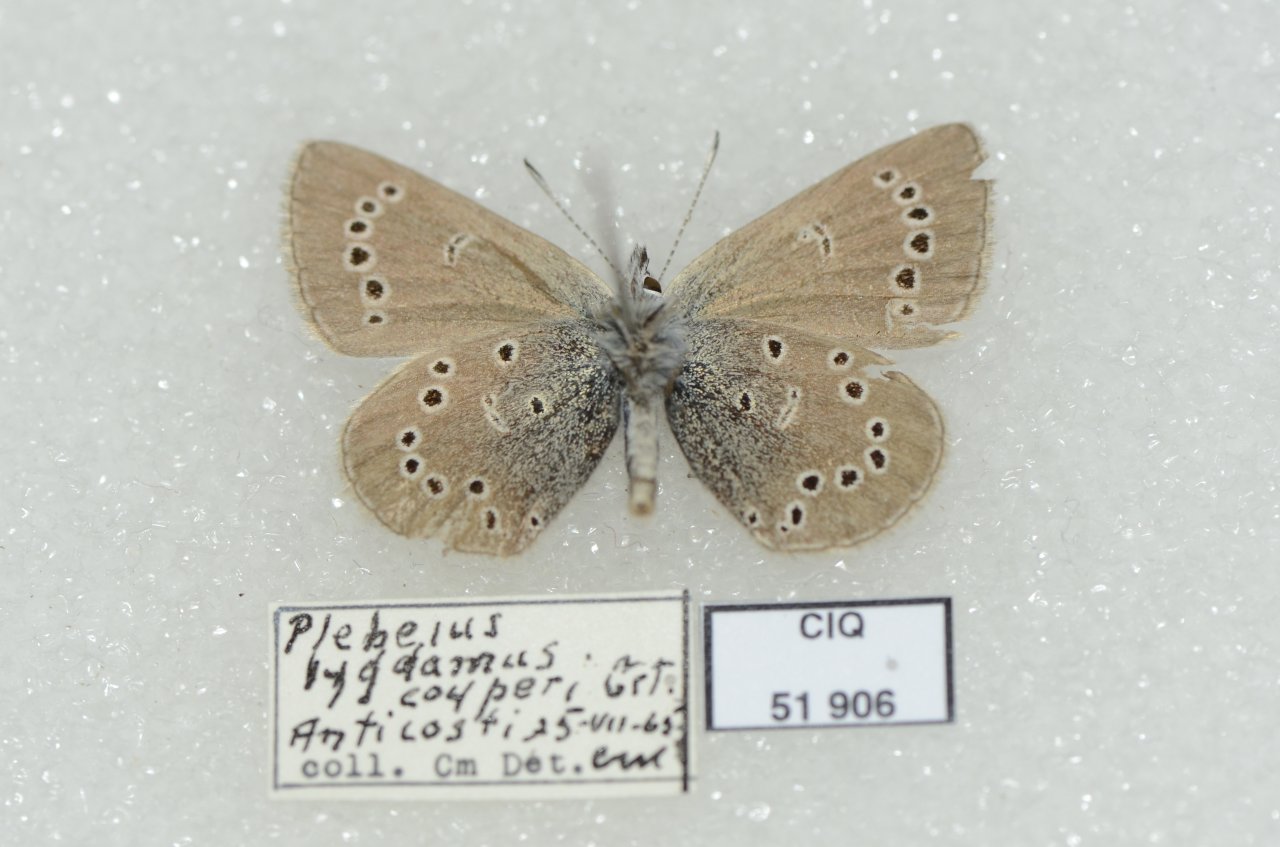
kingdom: Animalia
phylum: Arthropoda
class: Insecta
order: Lepidoptera
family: Lycaenidae
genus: Glaucopsyche
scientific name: Glaucopsyche lygdamus
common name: Silvery Blue
